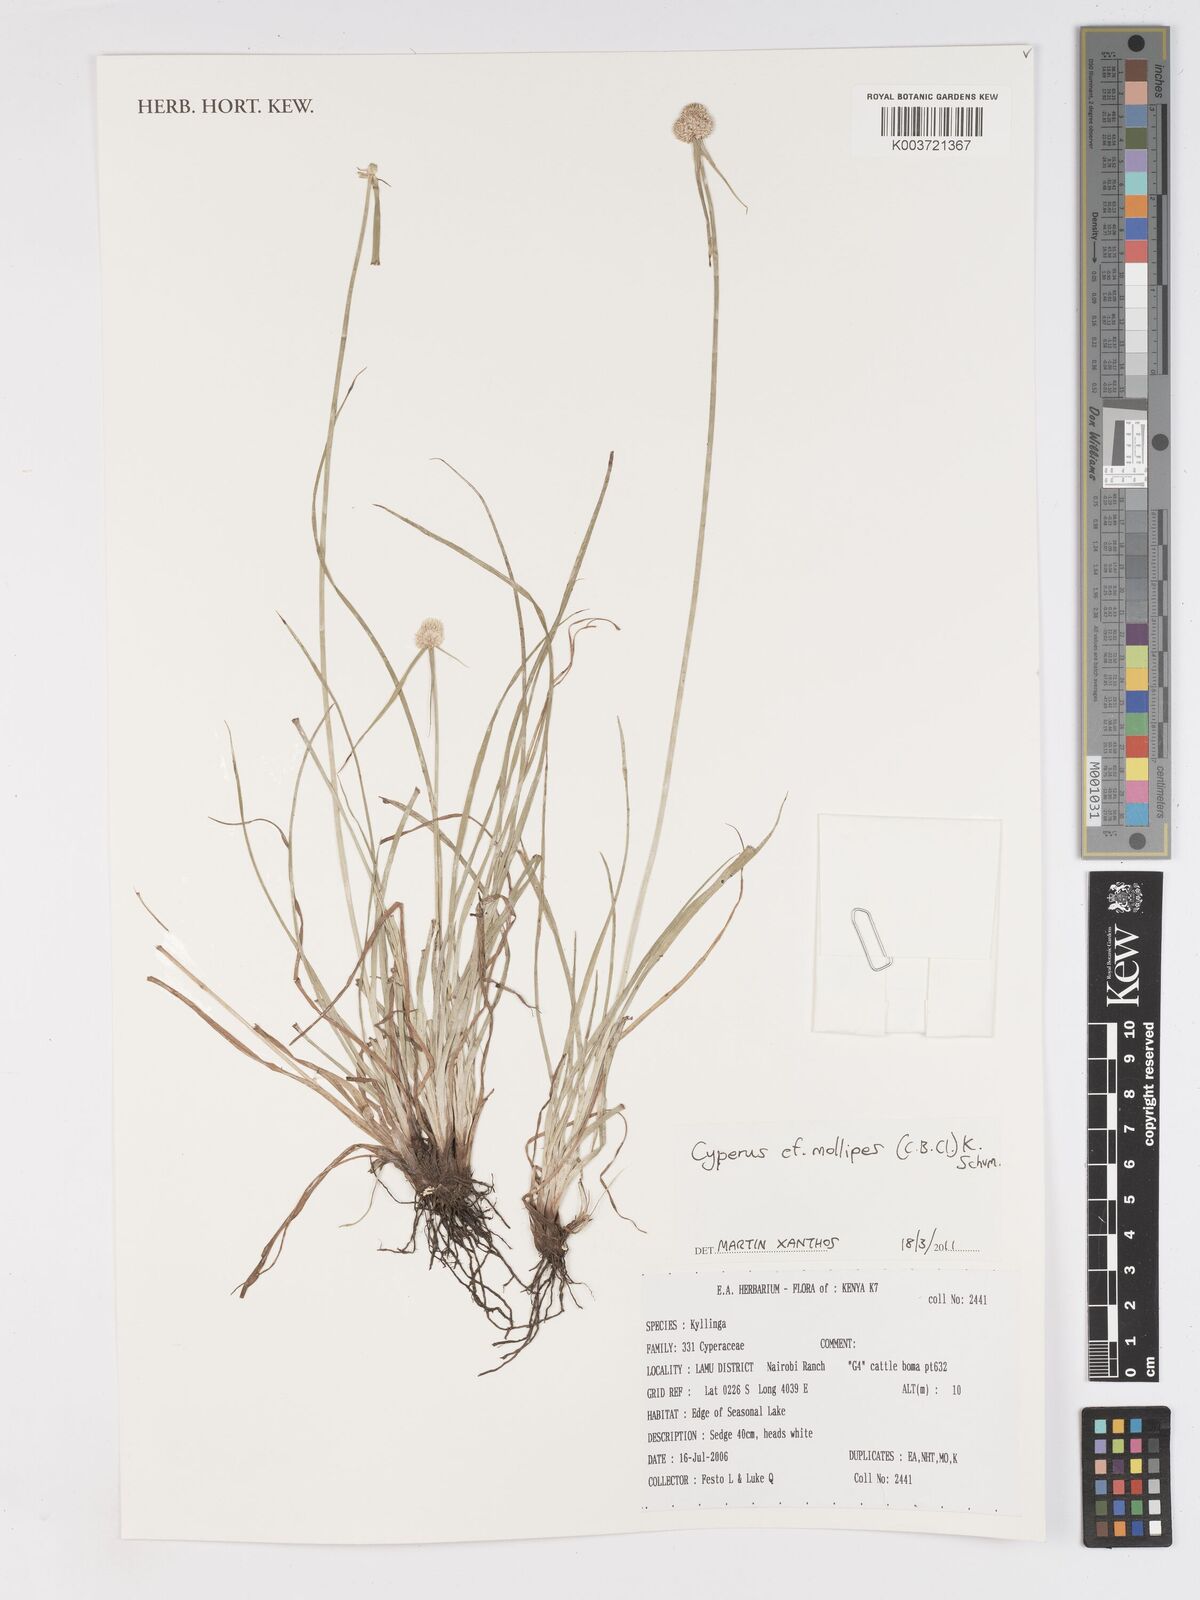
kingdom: Plantae
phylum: Tracheophyta
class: Liliopsida
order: Poales
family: Cyperaceae
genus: Cyperus
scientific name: Cyperus mollipes
